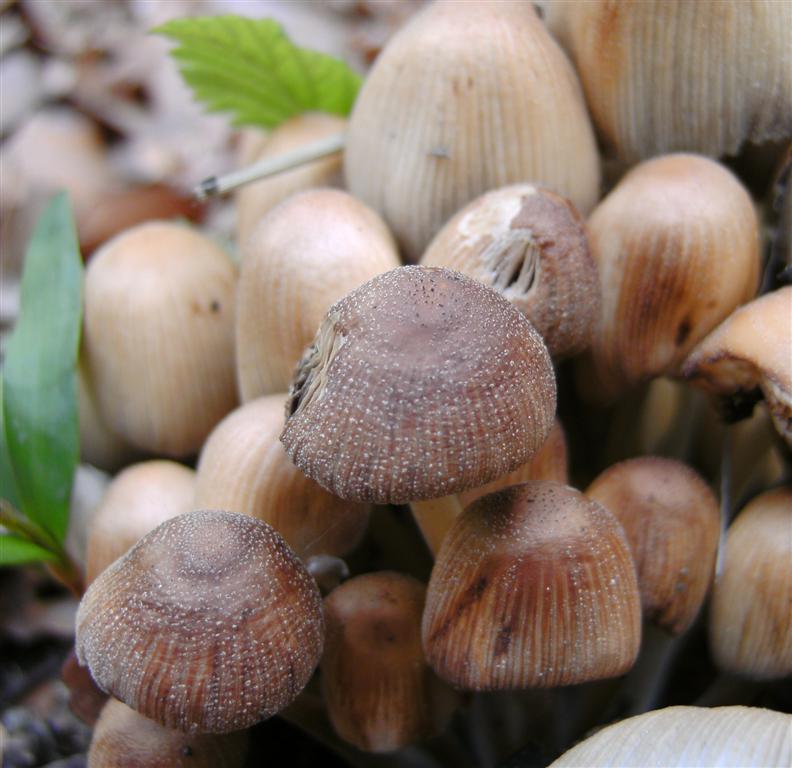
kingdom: Fungi
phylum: Basidiomycota
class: Agaricomycetes
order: Agaricales
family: Psathyrellaceae
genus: Coprinellus
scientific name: Coprinellus micaceus
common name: glimmer-blækhat
